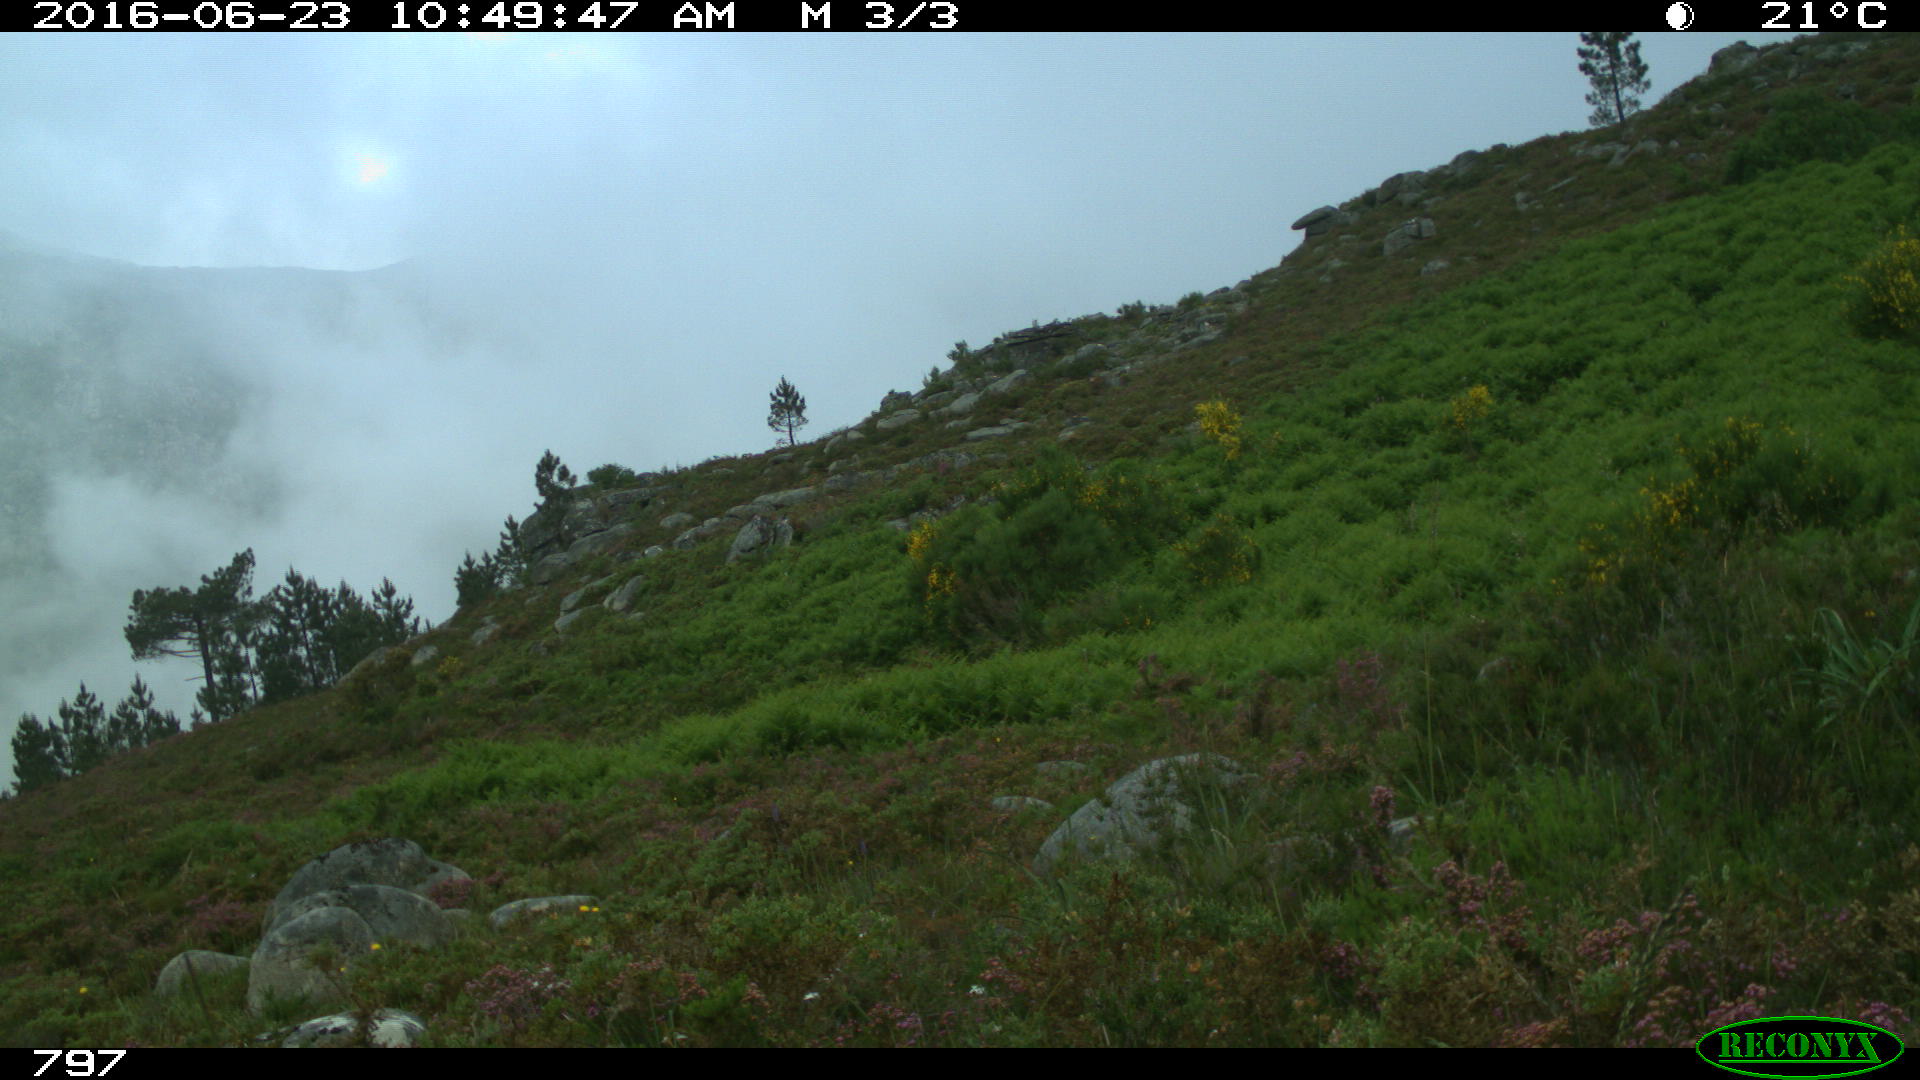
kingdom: Animalia
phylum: Chordata
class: Mammalia
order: Artiodactyla
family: Cervidae
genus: Capreolus
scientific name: Capreolus capreolus
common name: Western roe deer
